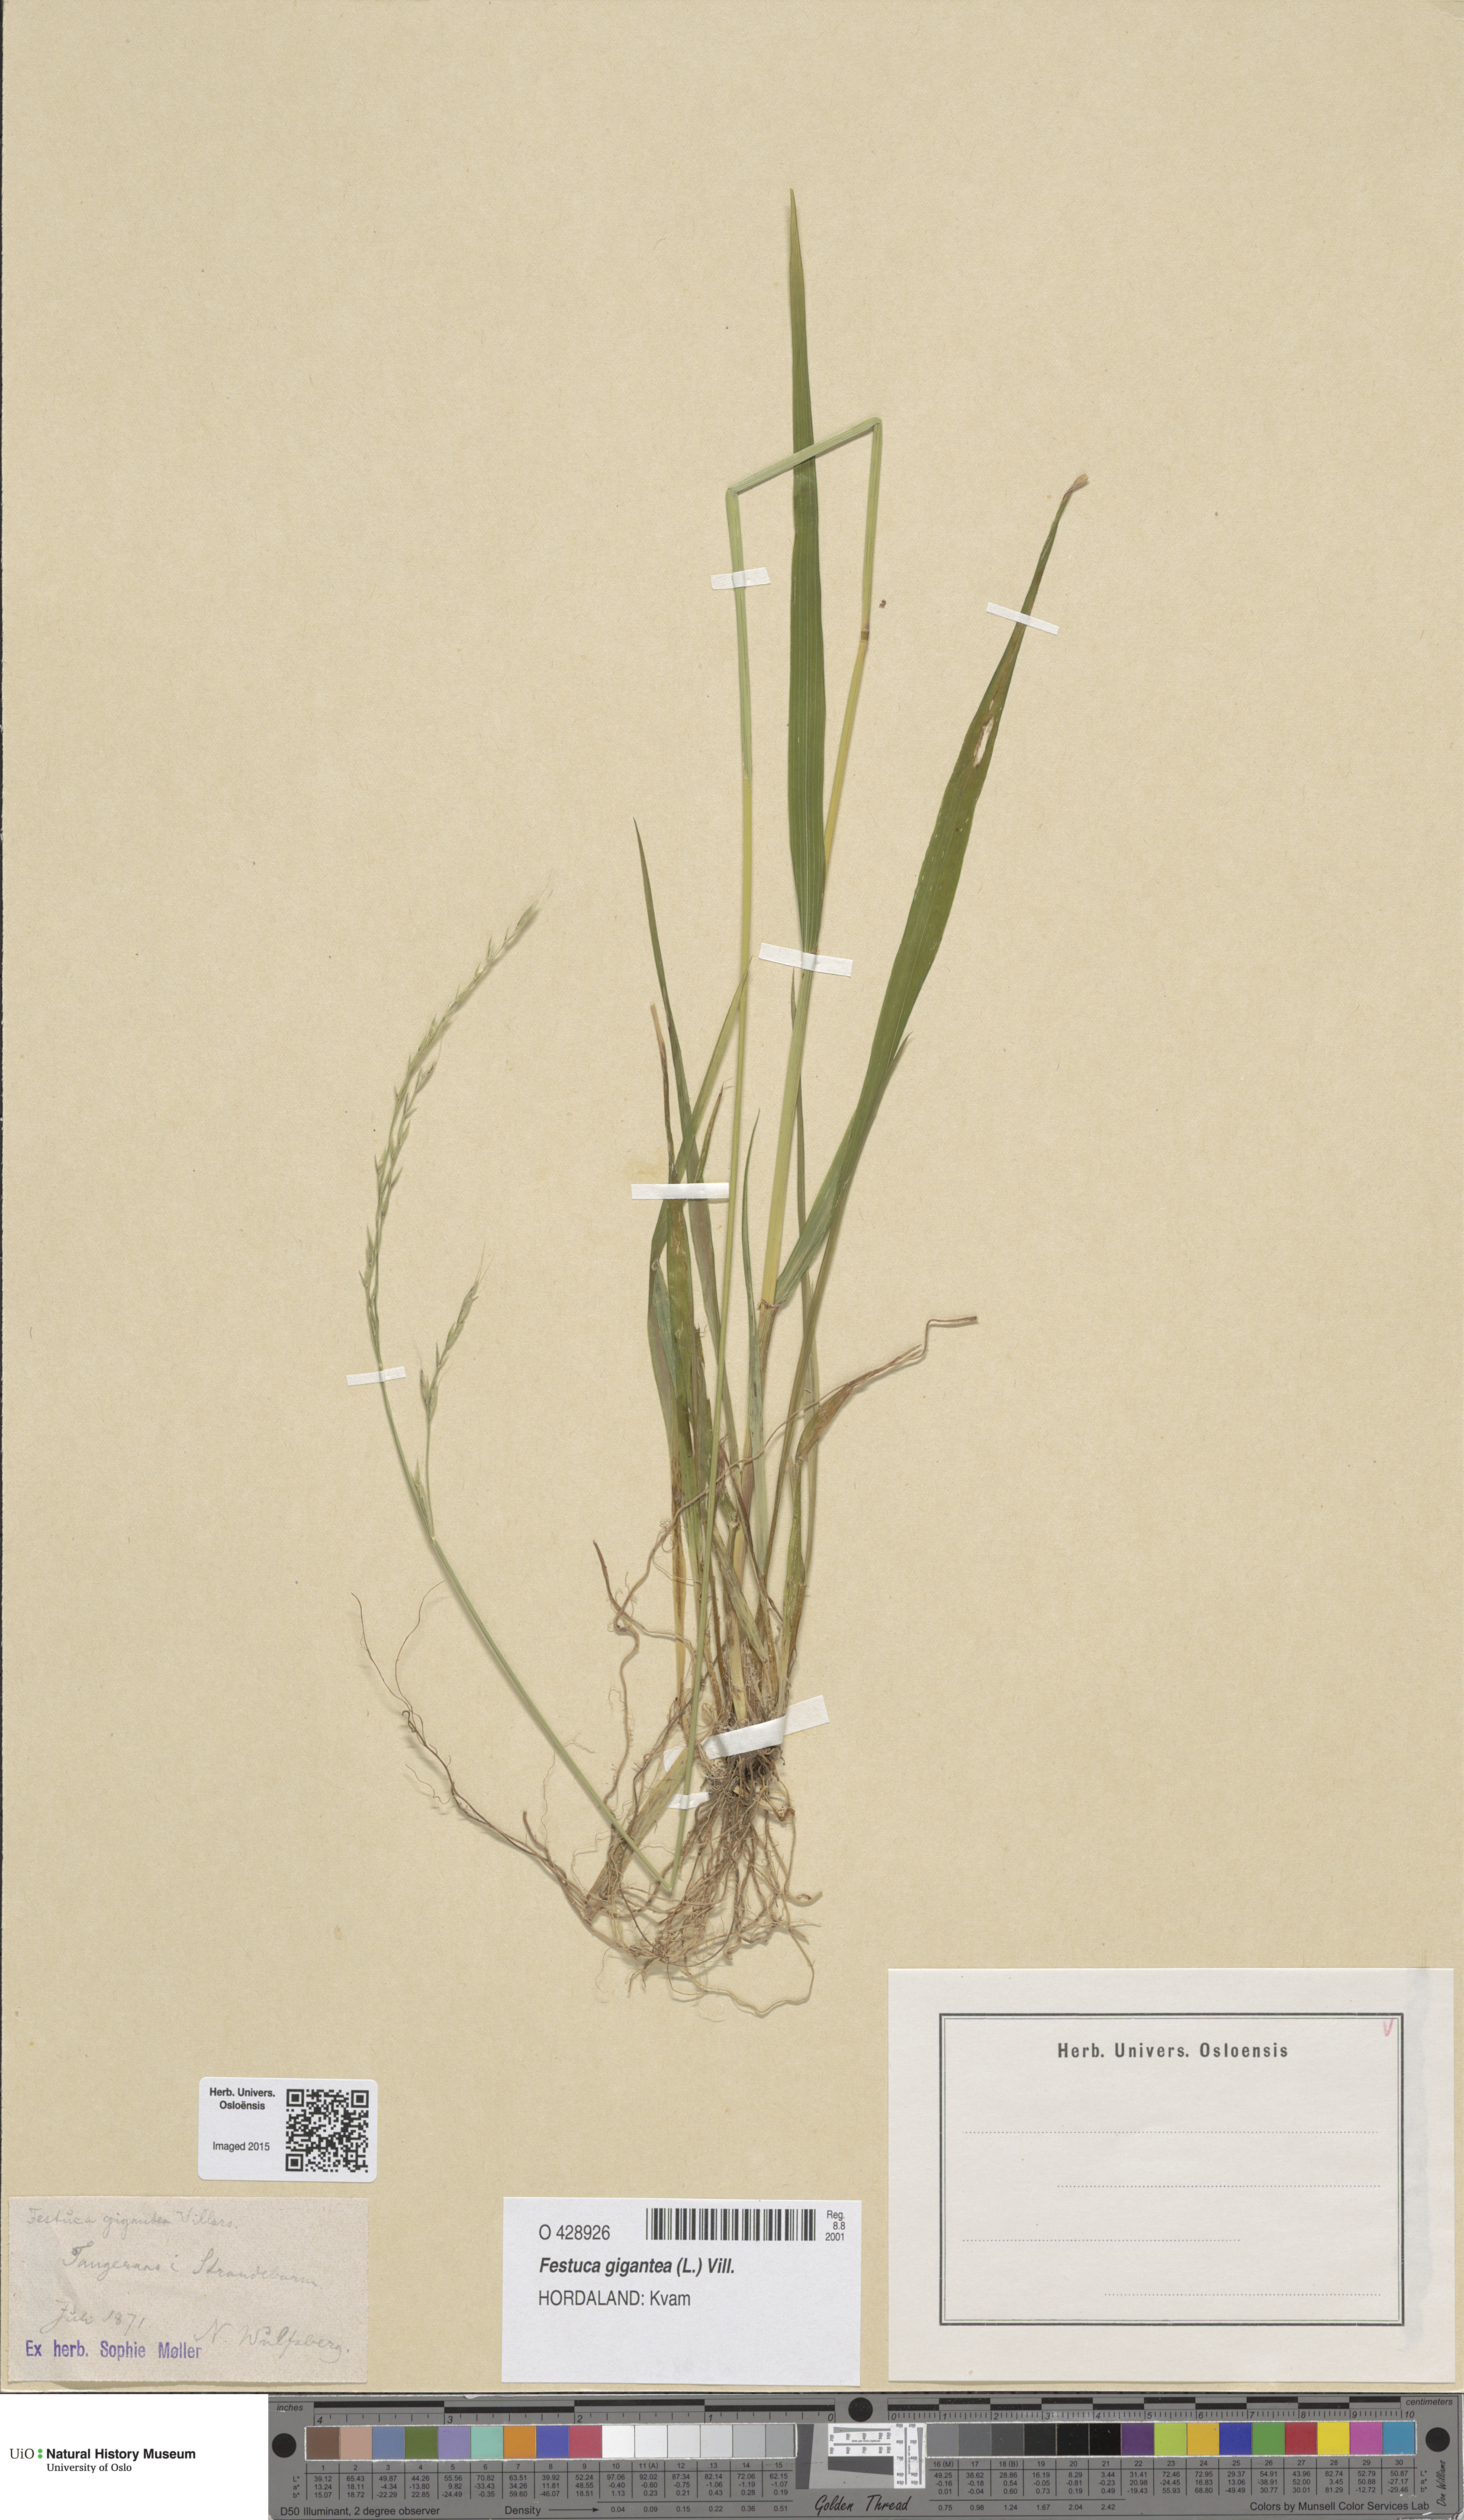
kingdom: Plantae
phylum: Tracheophyta
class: Liliopsida
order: Poales
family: Poaceae
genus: Lolium
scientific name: Lolium giganteum
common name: Giant fescue
